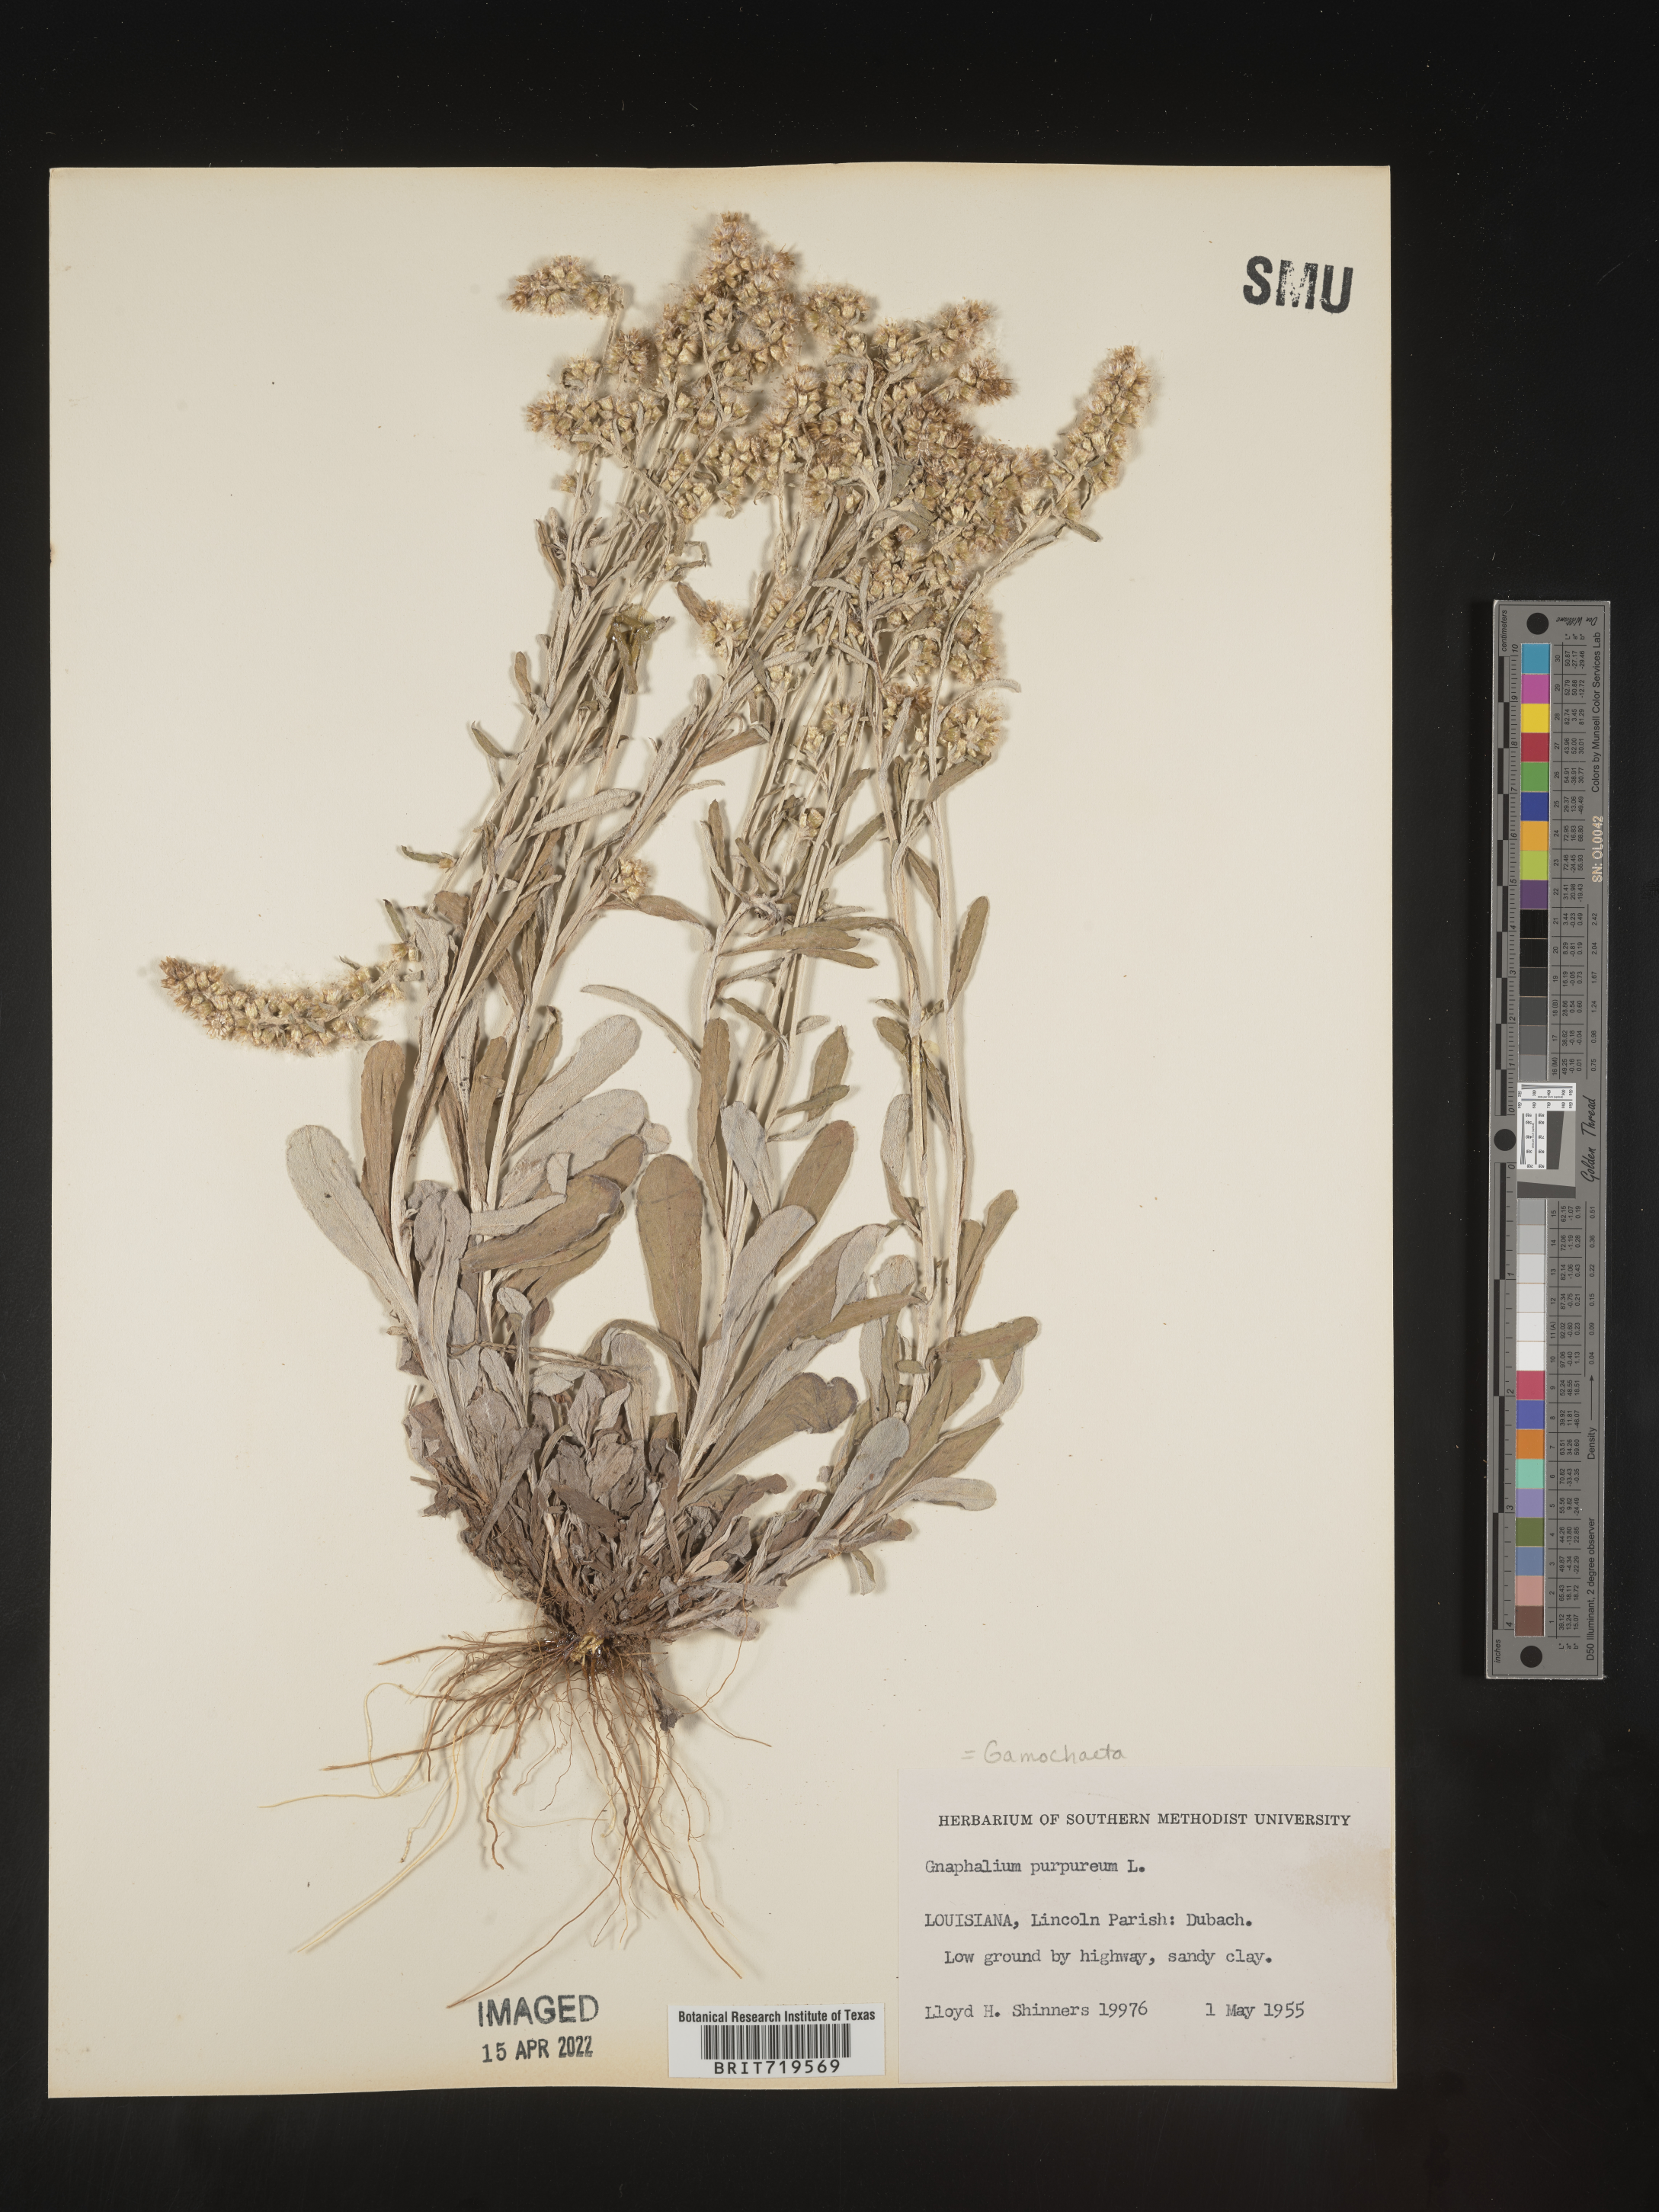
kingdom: Plantae
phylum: Tracheophyta
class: Magnoliopsida
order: Asterales
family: Asteraceae
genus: Gamochaeta
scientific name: Gamochaeta argyrinea
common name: Silvery cudweed
